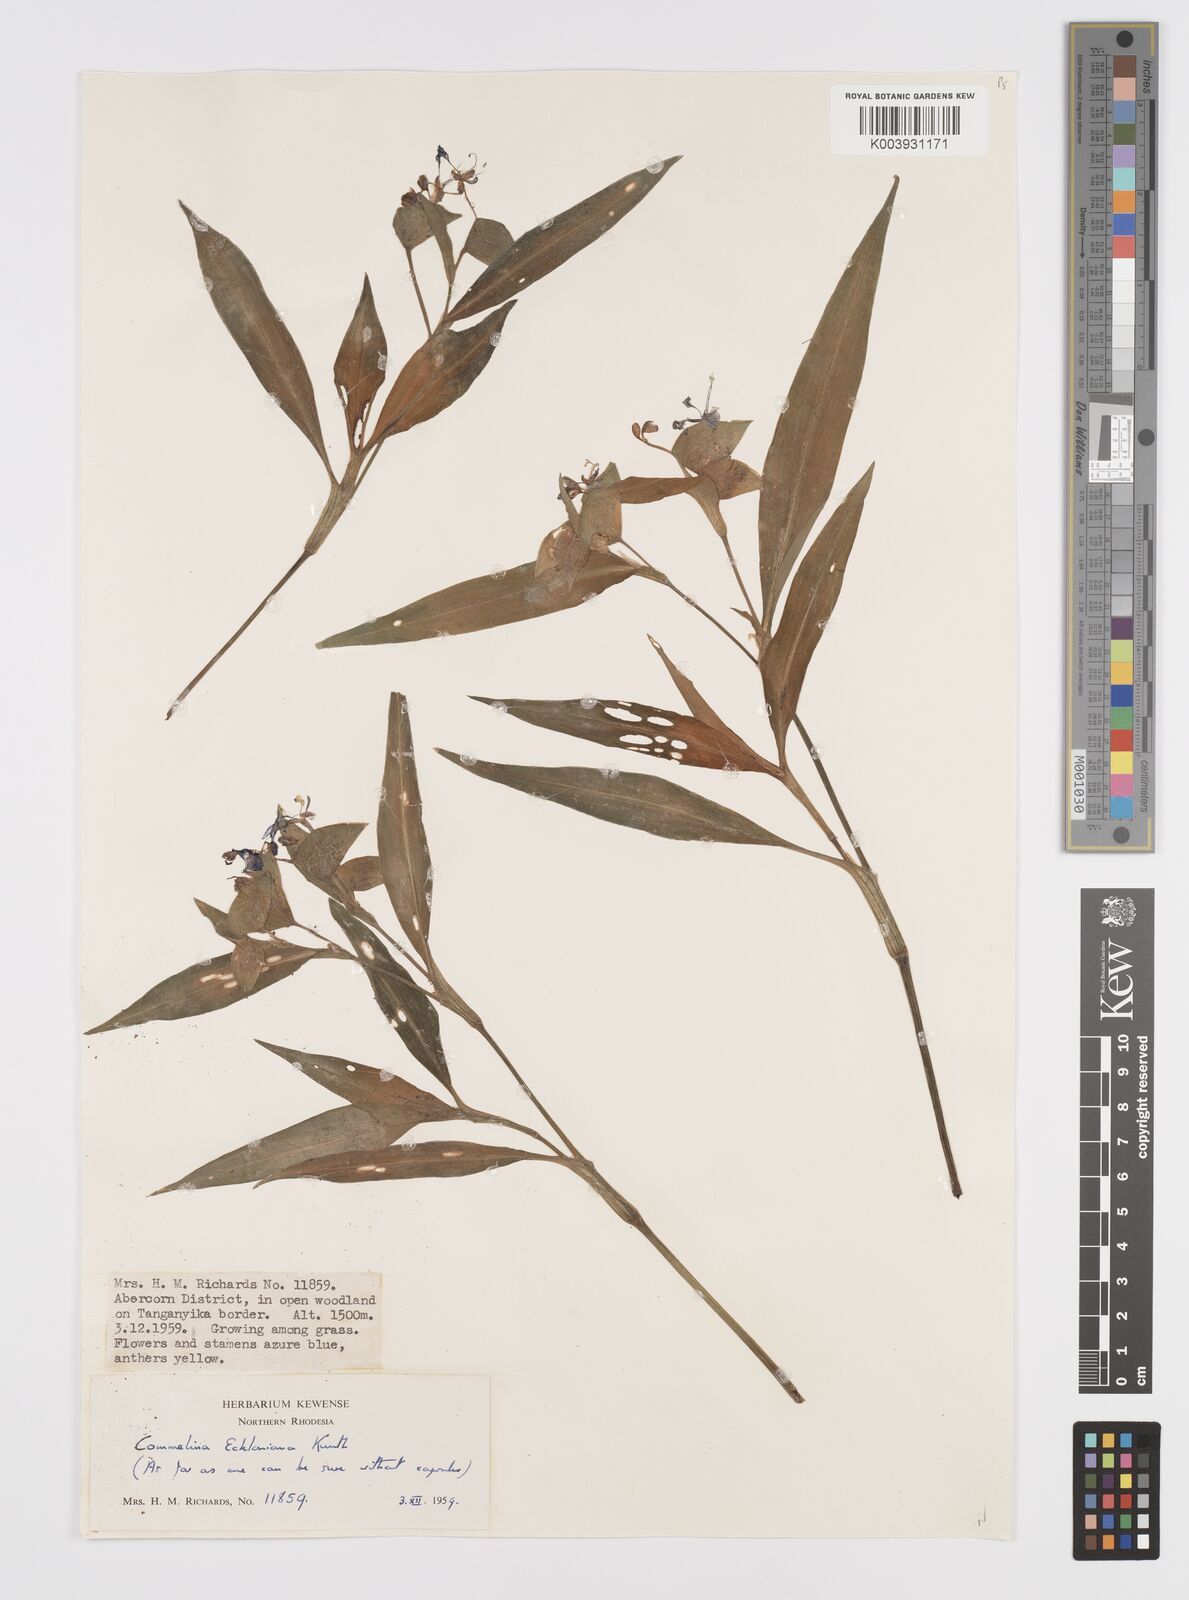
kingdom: Plantae
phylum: Tracheophyta
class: Liliopsida
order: Commelinales
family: Commelinaceae
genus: Commelina
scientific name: Commelina eckloniana
